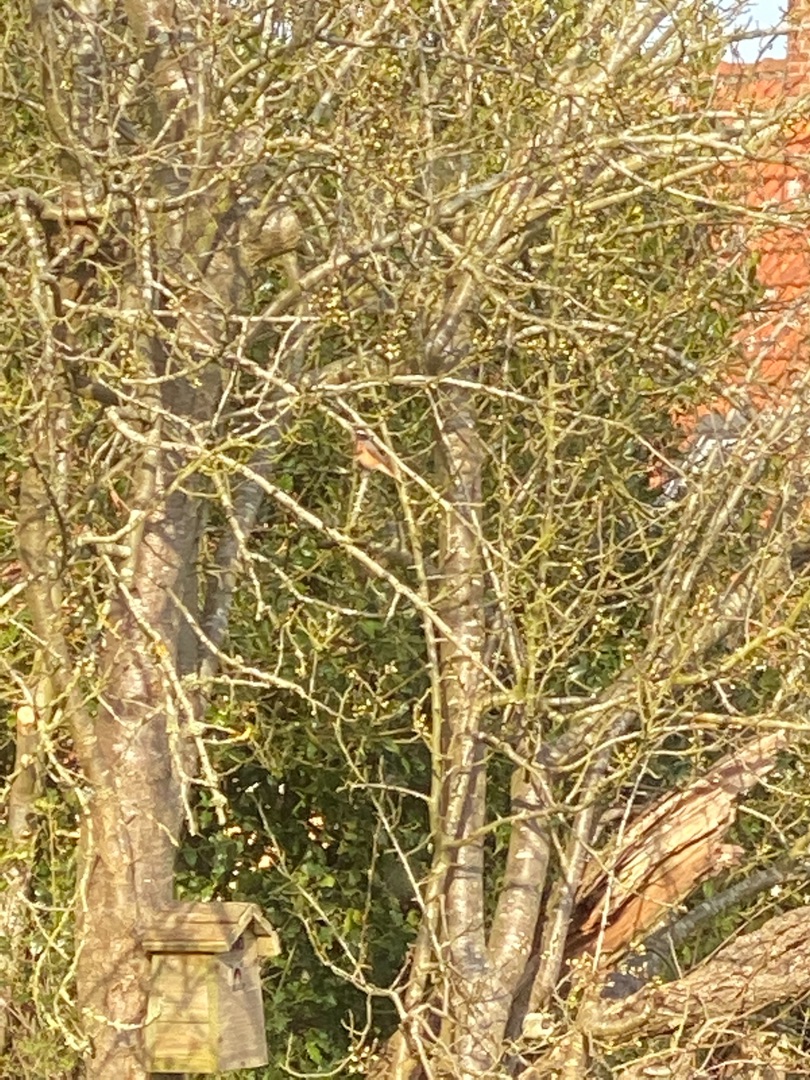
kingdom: Animalia
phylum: Chordata
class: Aves
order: Passeriformes
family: Muscicapidae
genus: Phoenicurus
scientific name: Phoenicurus phoenicurus
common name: Rødstjert
